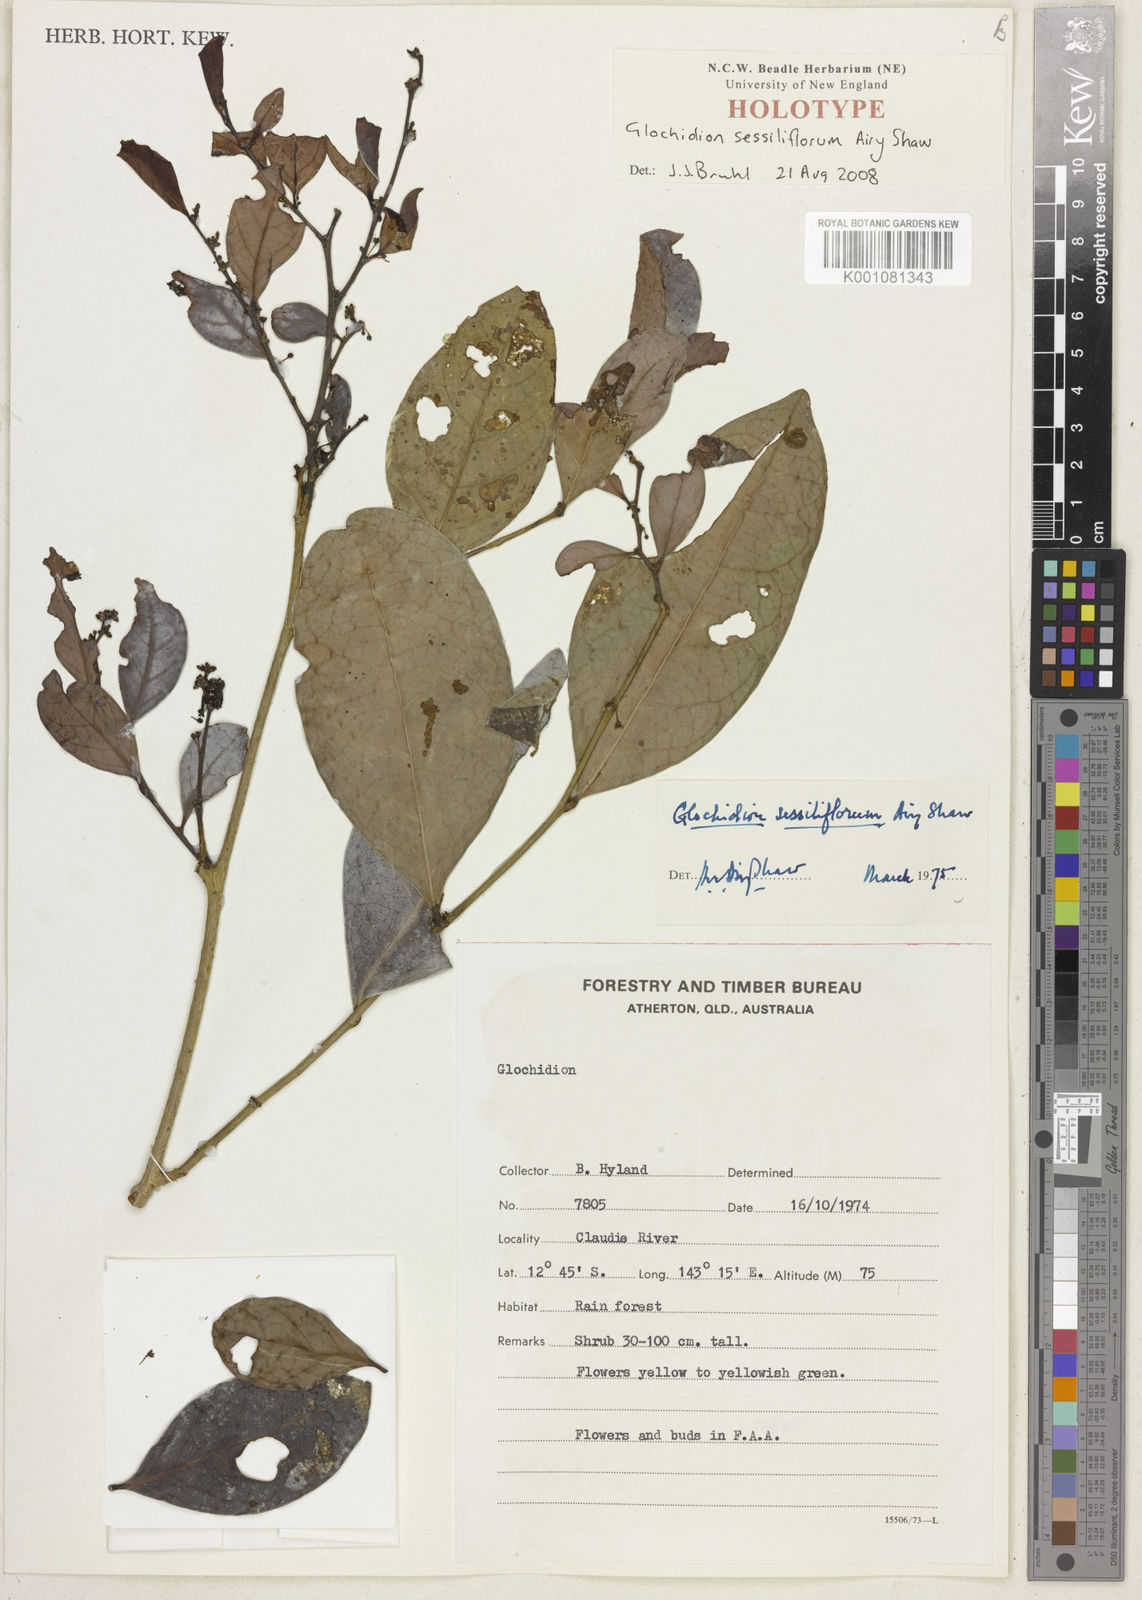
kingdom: Plantae
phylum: Tracheophyta
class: Magnoliopsida
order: Malpighiales
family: Phyllanthaceae
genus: Glochidion
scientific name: Glochidion sessiliflorum
